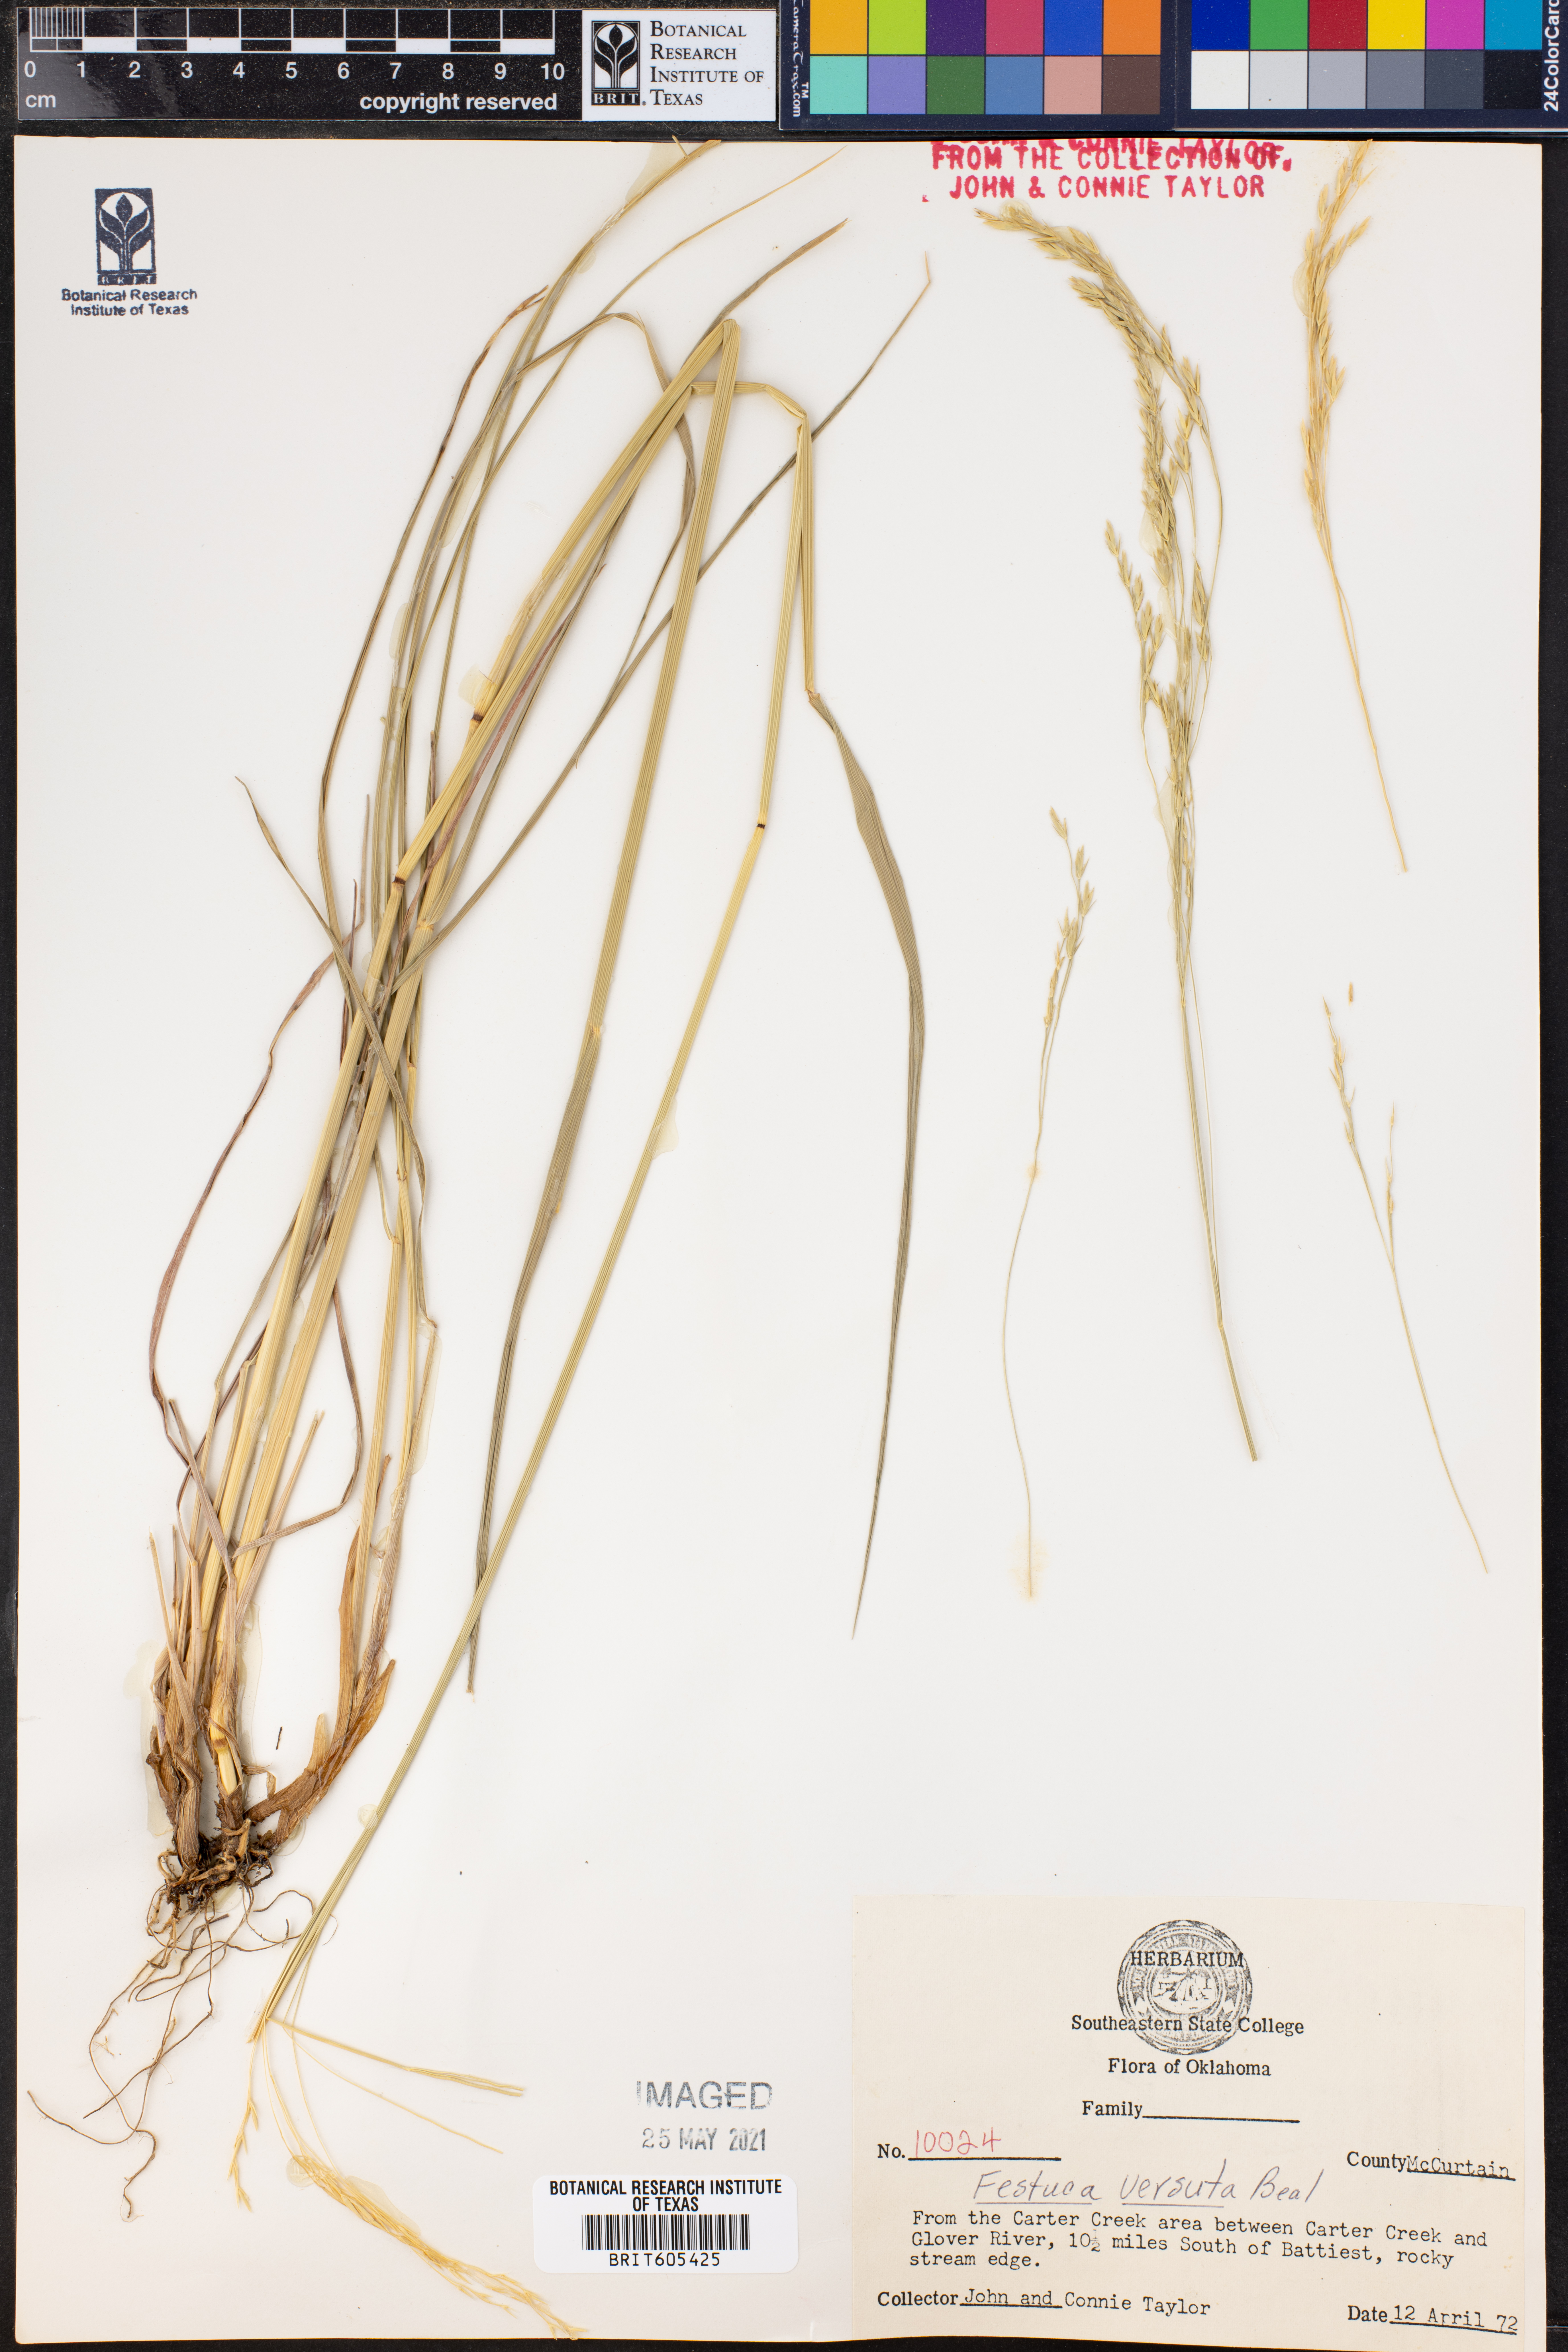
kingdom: Plantae
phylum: Tracheophyta
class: Liliopsida
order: Poales
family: Poaceae
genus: Festuca
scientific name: Festuca versuta
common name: Texas fescue
